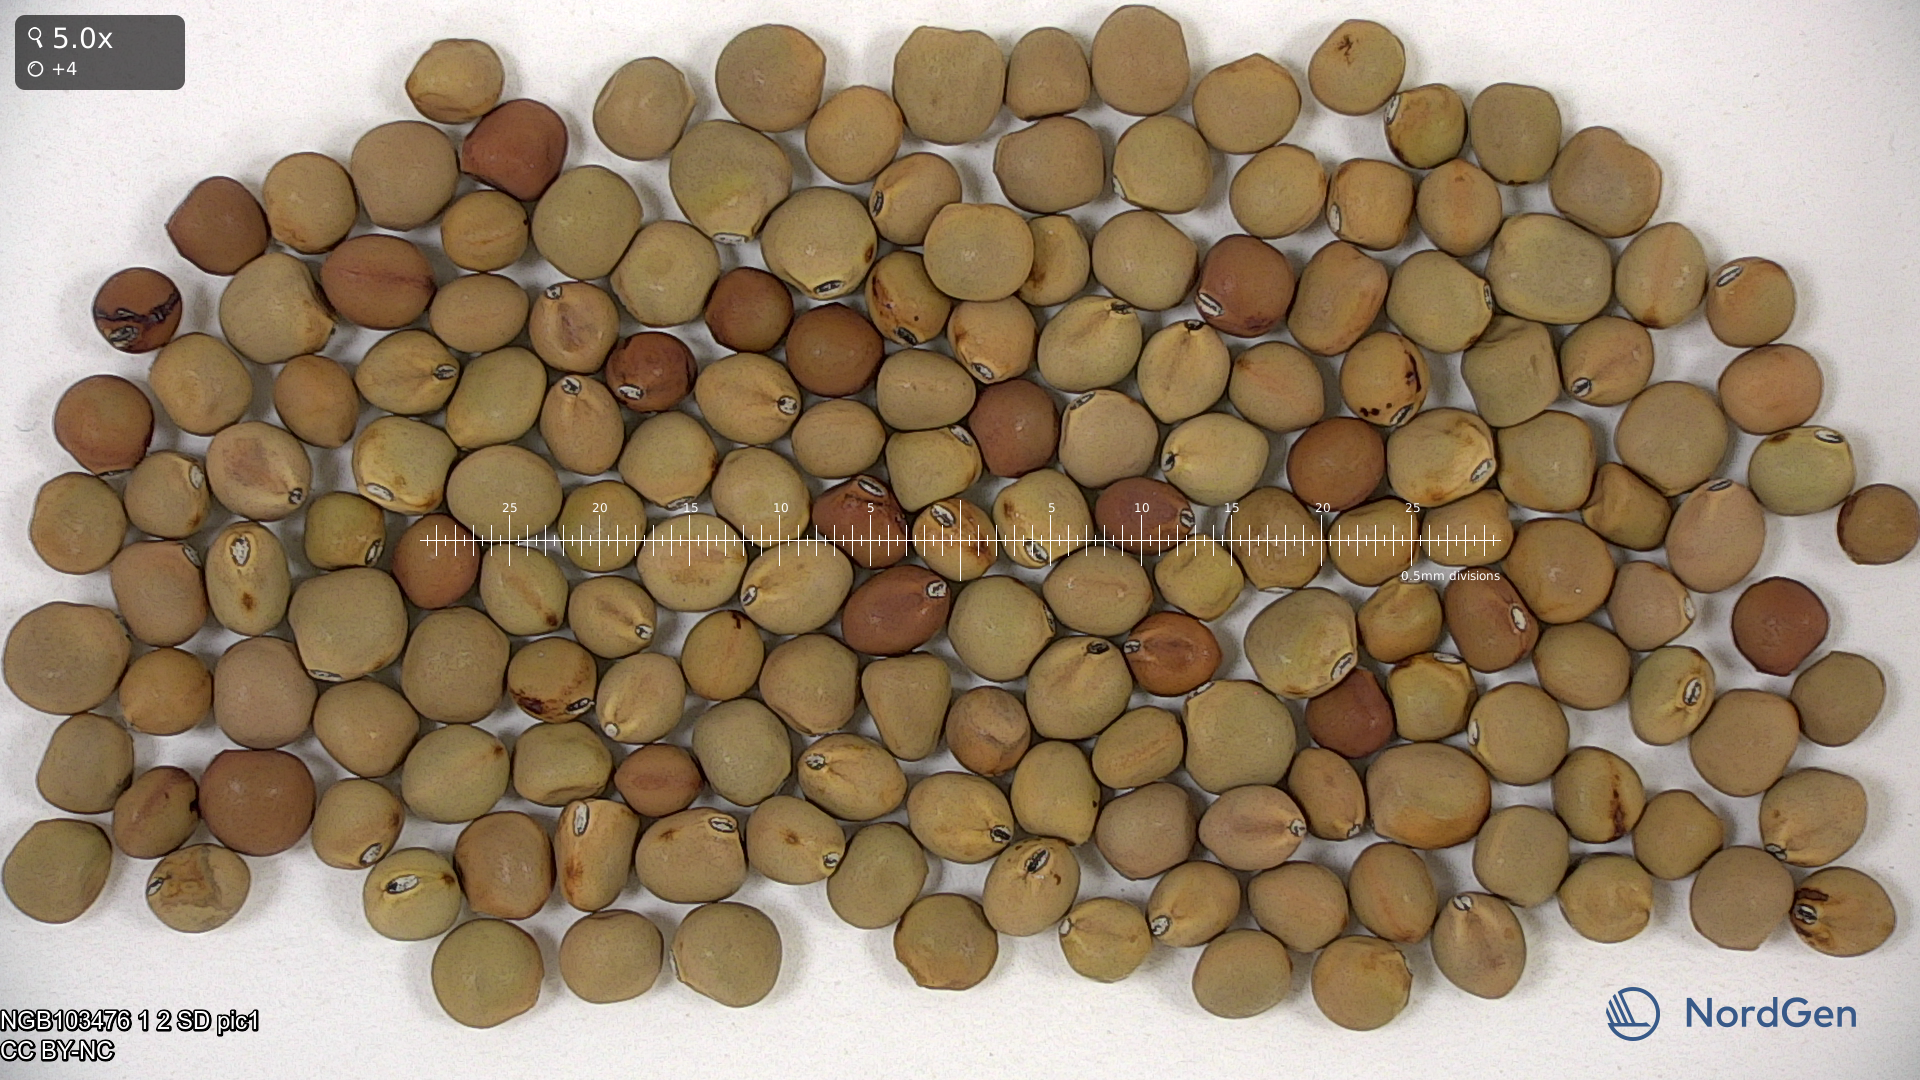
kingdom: Plantae
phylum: Tracheophyta
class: Magnoliopsida
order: Fabales
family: Fabaceae
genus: Lathyrus
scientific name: Lathyrus oleraceus
